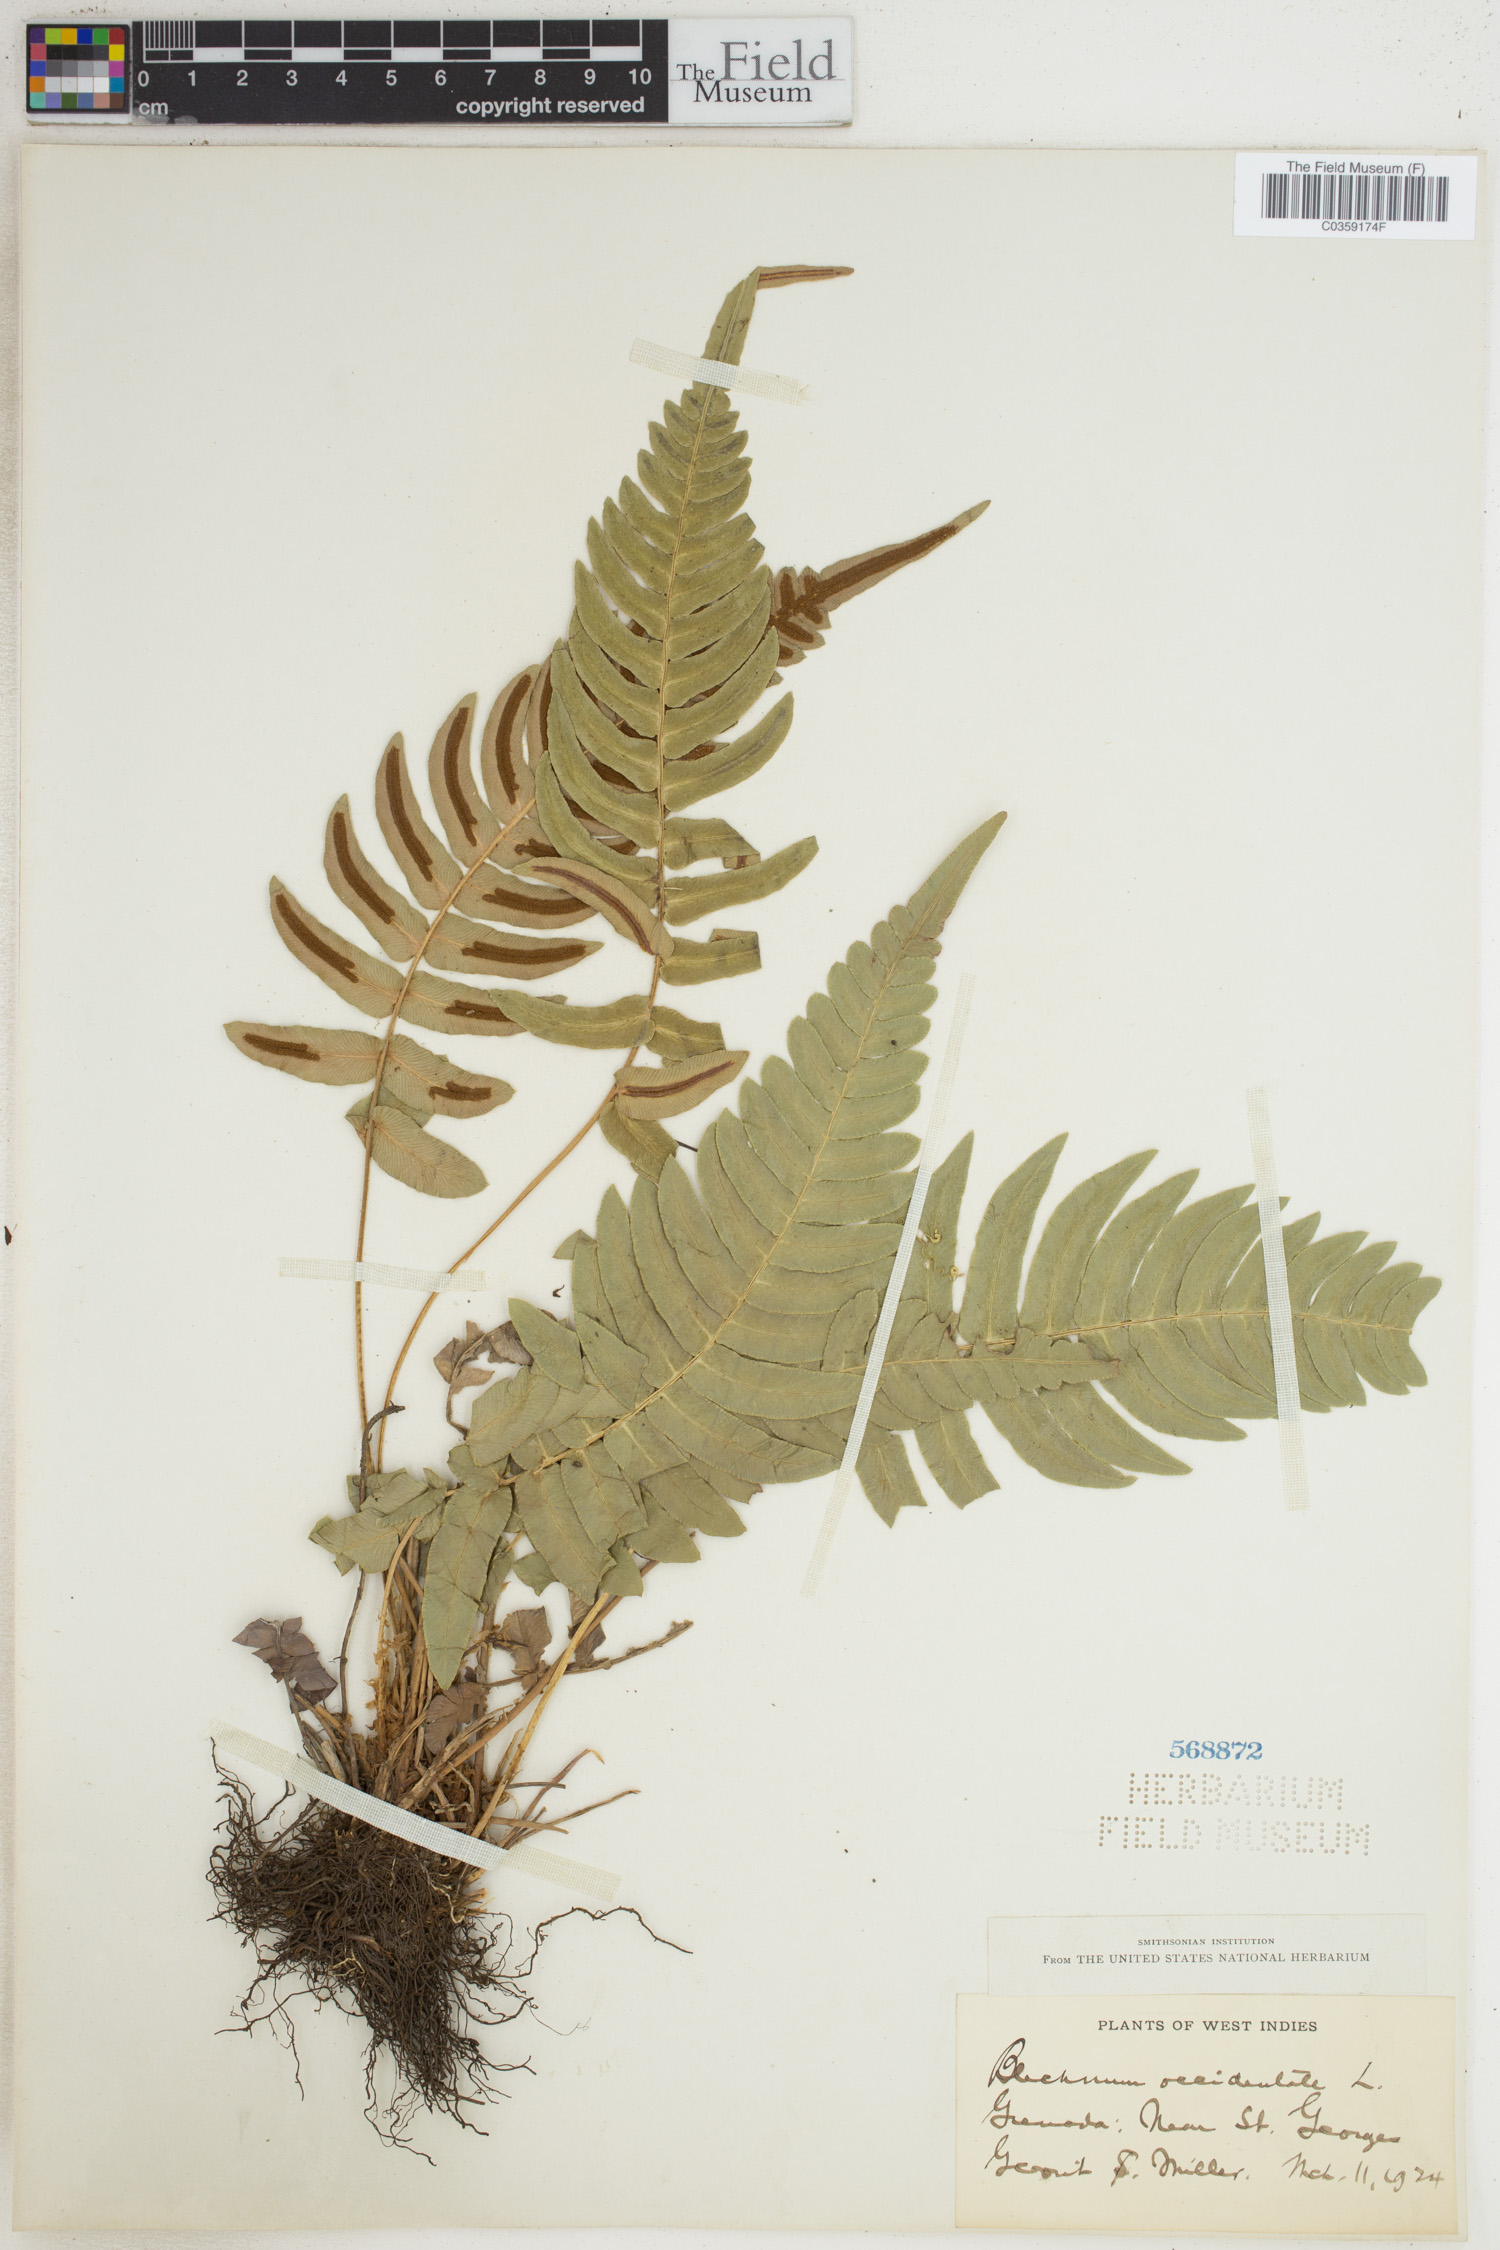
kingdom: Plantae
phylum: Tracheophyta
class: Polypodiopsida
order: Polypodiales
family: Blechnaceae
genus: Blechnum
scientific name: Blechnum occidentale
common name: Hammock fern
